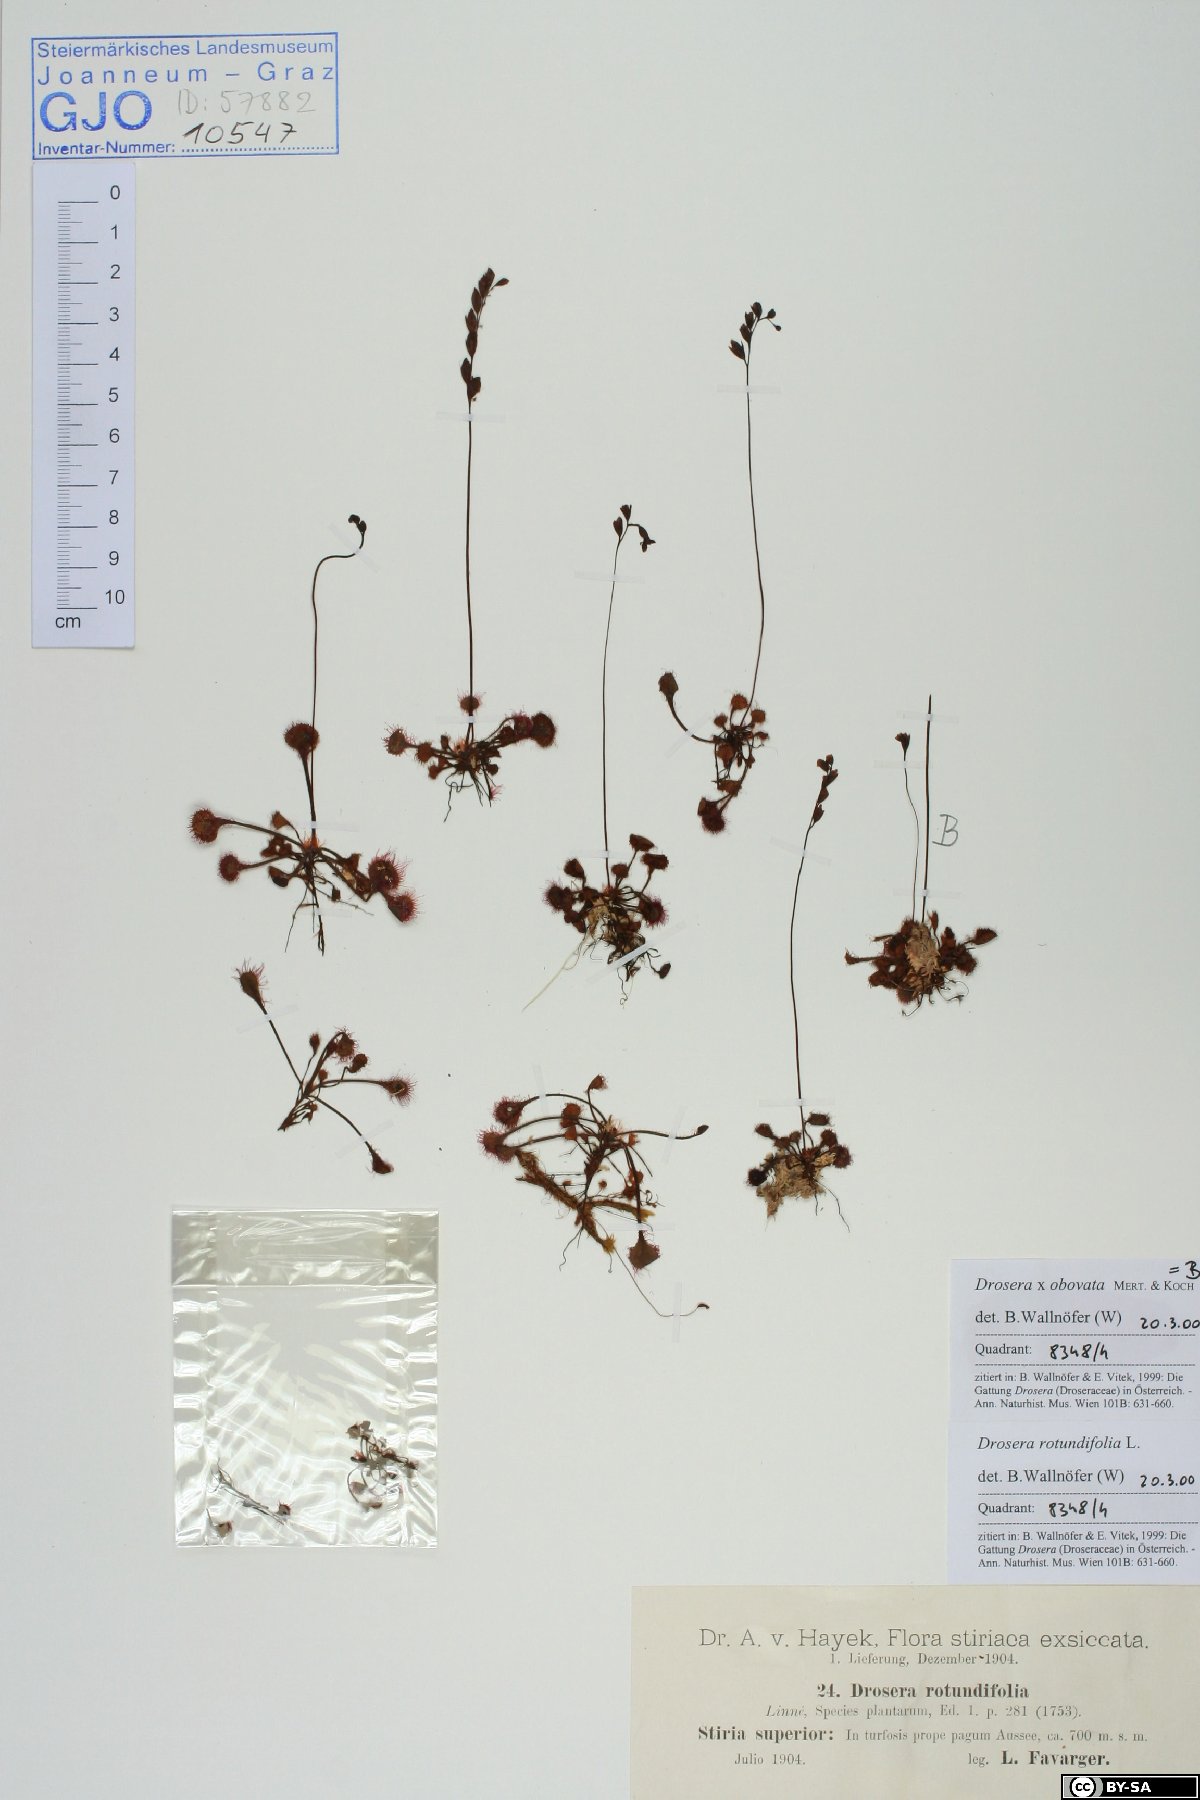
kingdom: Plantae
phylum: Tracheophyta
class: Magnoliopsida
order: Caryophyllales
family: Droseraceae
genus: Drosera
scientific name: Drosera rotundifolia
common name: Round-leaved sundew
